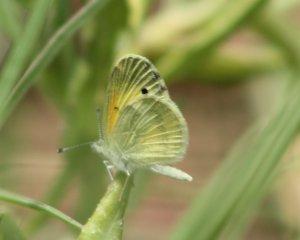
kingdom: Animalia
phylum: Arthropoda
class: Insecta
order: Lepidoptera
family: Pieridae
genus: Nathalis
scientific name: Nathalis iole
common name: Dainty Sulphur
